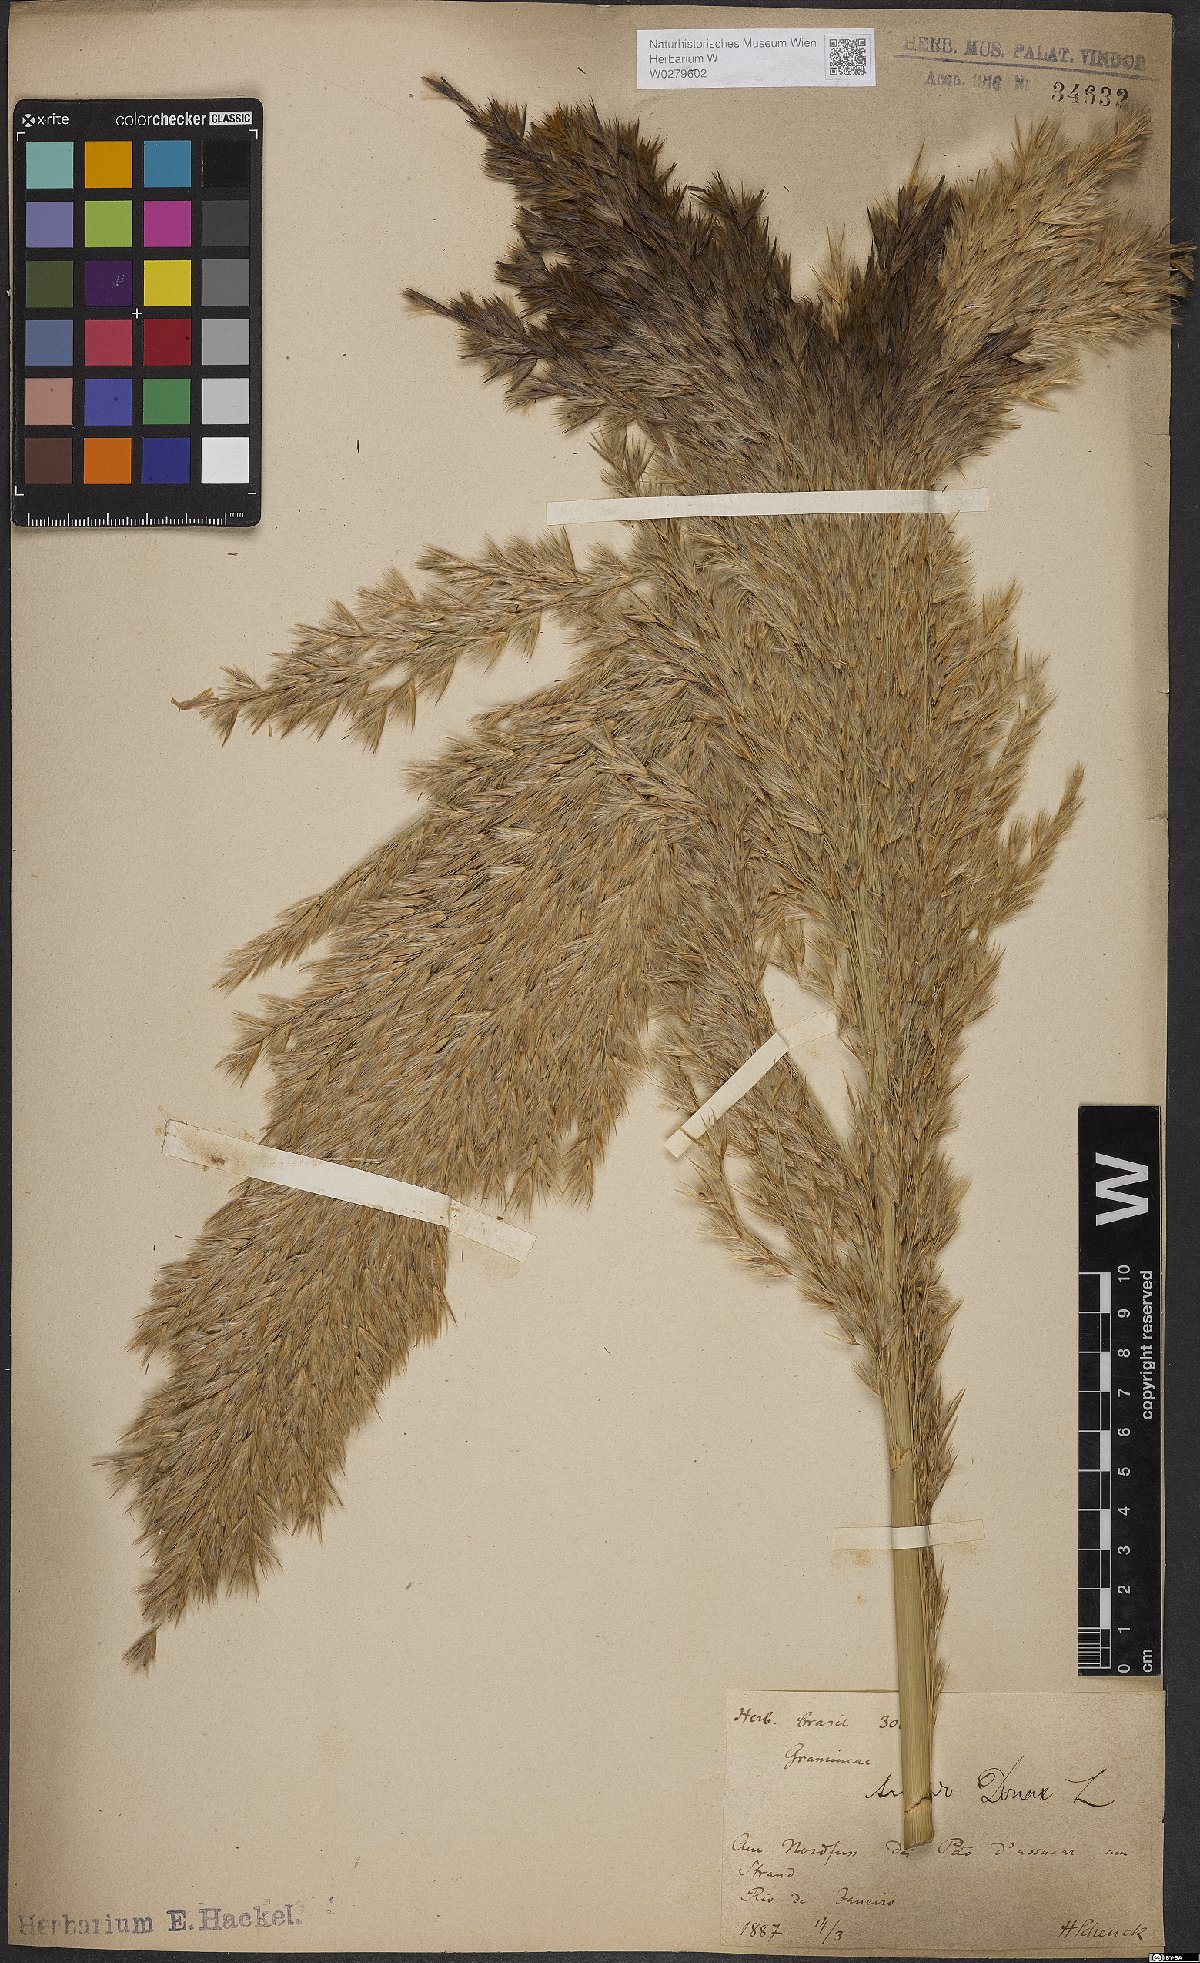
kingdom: Plantae
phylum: Tracheophyta
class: Liliopsida
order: Poales
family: Poaceae
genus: Arundo
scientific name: Arundo donax
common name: Giant reed
